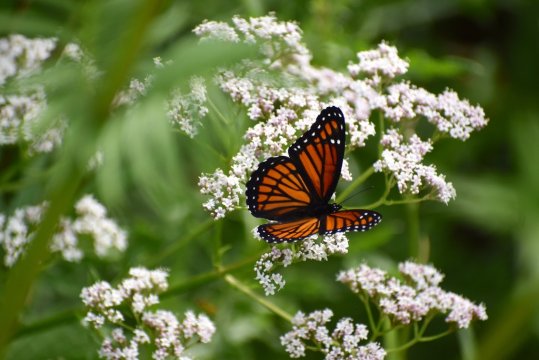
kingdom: Animalia
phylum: Arthropoda
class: Insecta
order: Lepidoptera
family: Nymphalidae
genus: Limenitis
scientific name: Limenitis archippus
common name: Viceroy
